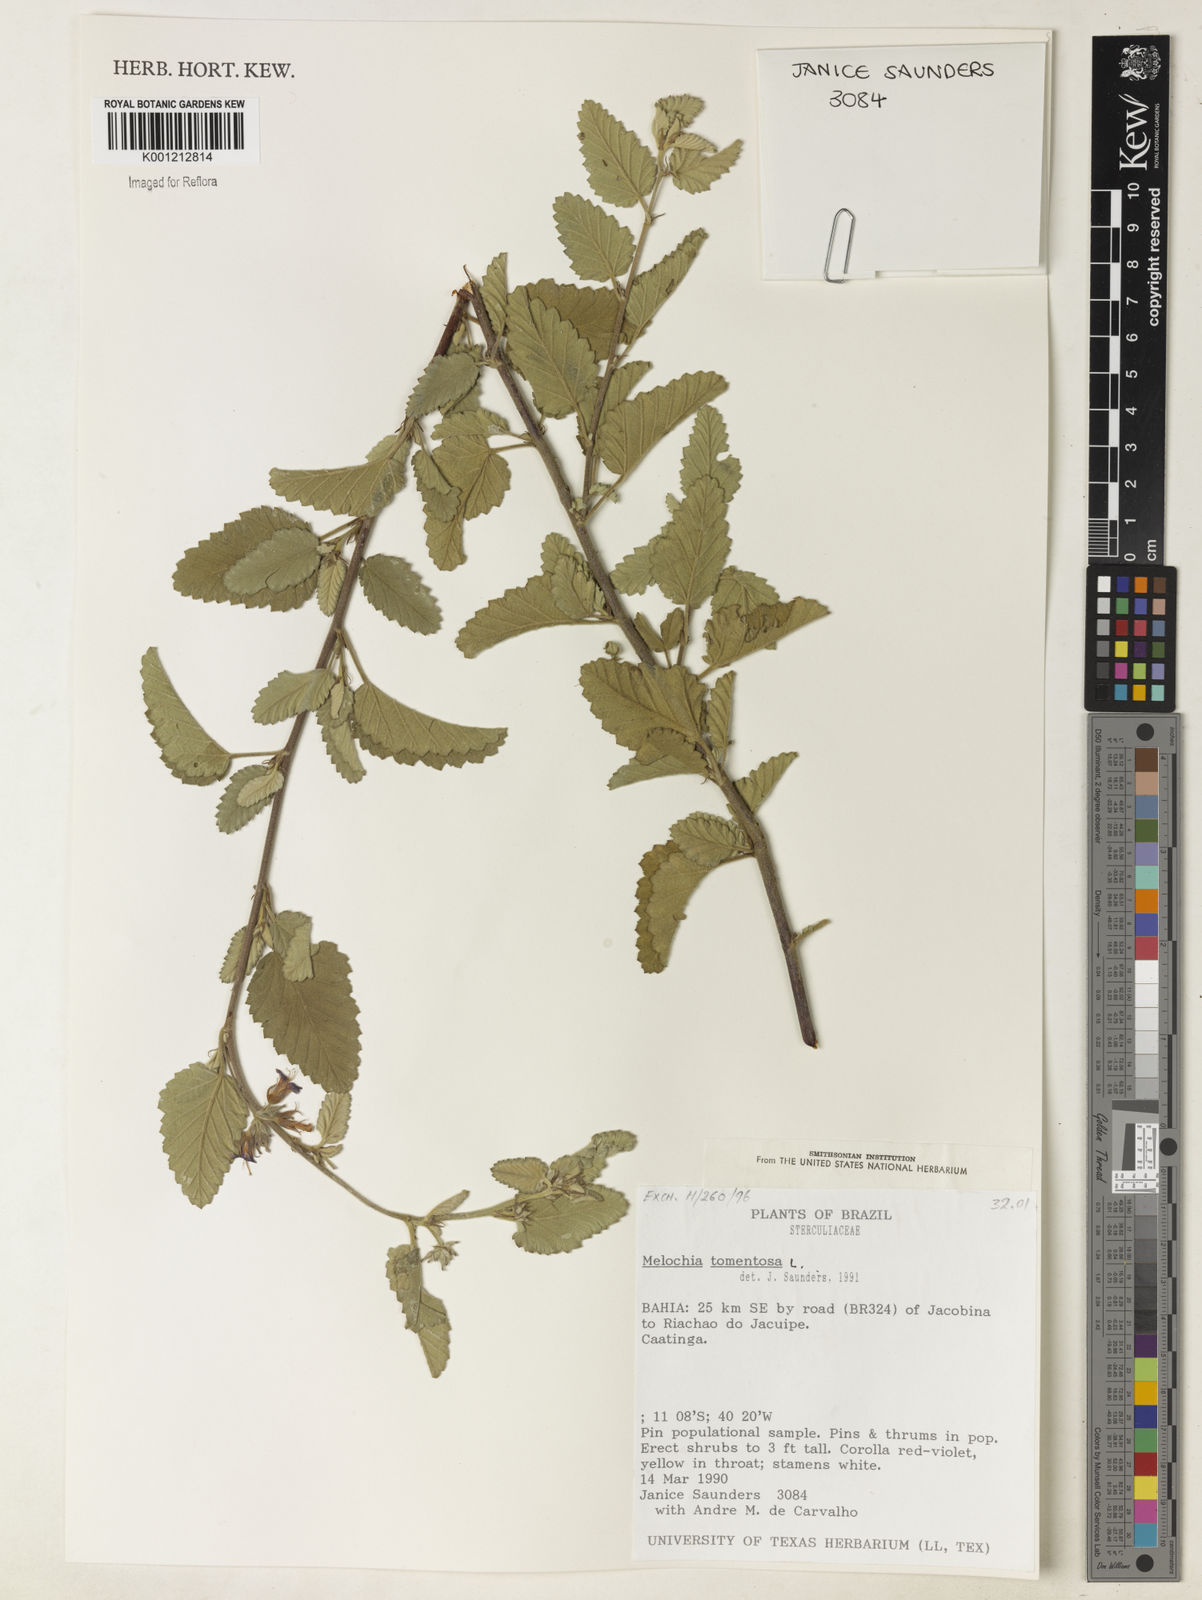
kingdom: Plantae
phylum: Tracheophyta
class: Magnoliopsida
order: Malvales
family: Malvaceae
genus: Melochia
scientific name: Melochia tomentosa
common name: Black torch
